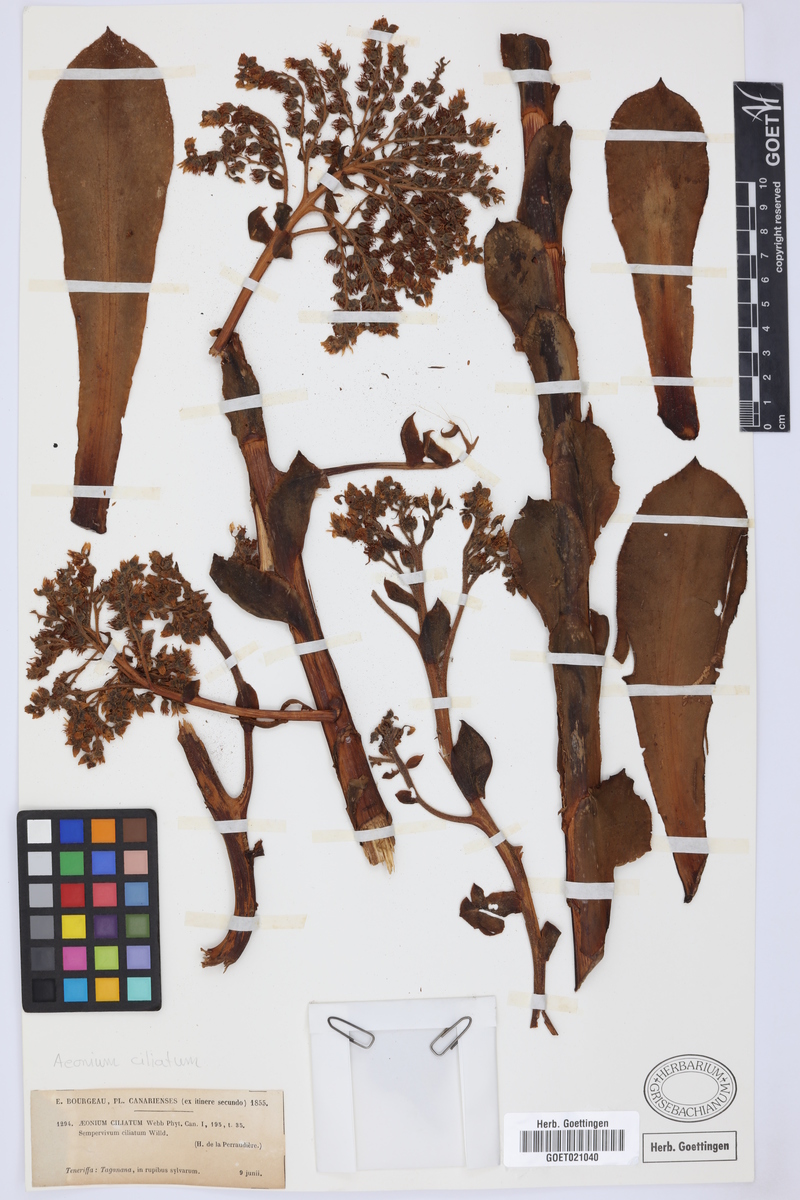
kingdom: Plantae
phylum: Tracheophyta
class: Magnoliopsida
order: Saxifragales
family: Crassulaceae
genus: Aeonium
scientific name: Aeonium ciliatum
